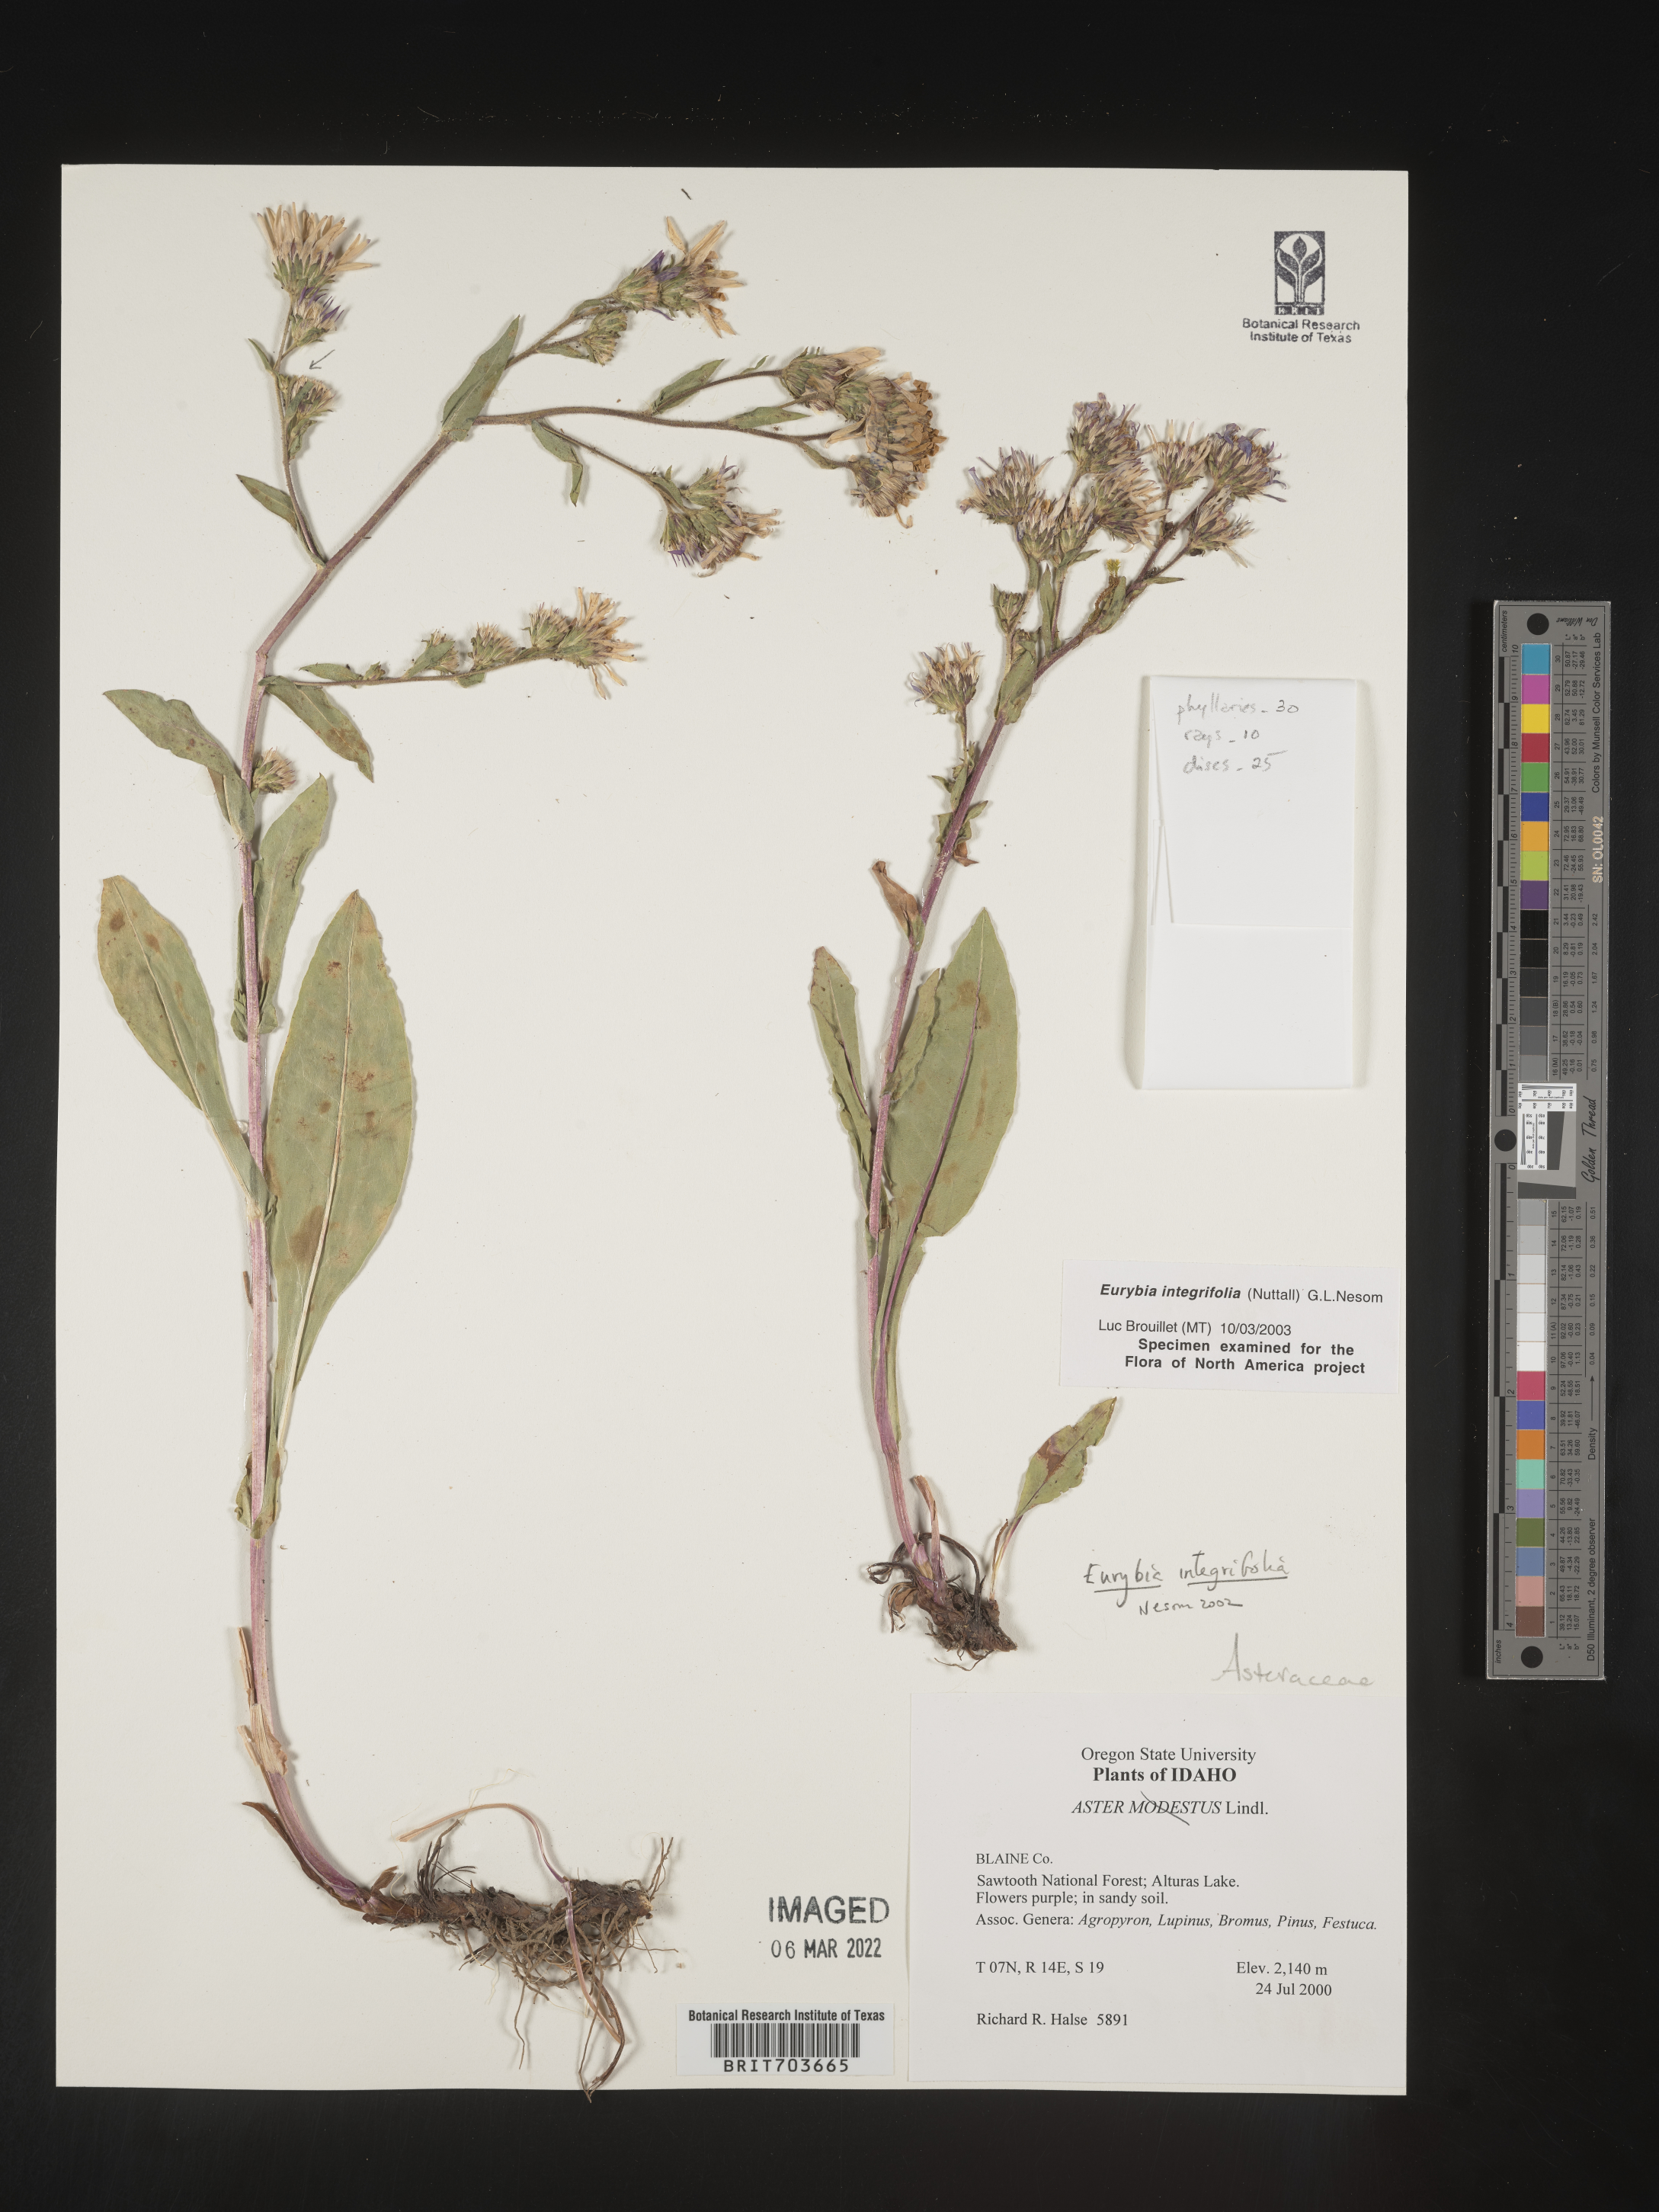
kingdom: Plantae
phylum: Tracheophyta
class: Magnoliopsida
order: Asterales
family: Asteraceae
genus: Eurybia
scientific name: Eurybia integrifolia
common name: Thick-stem aster
